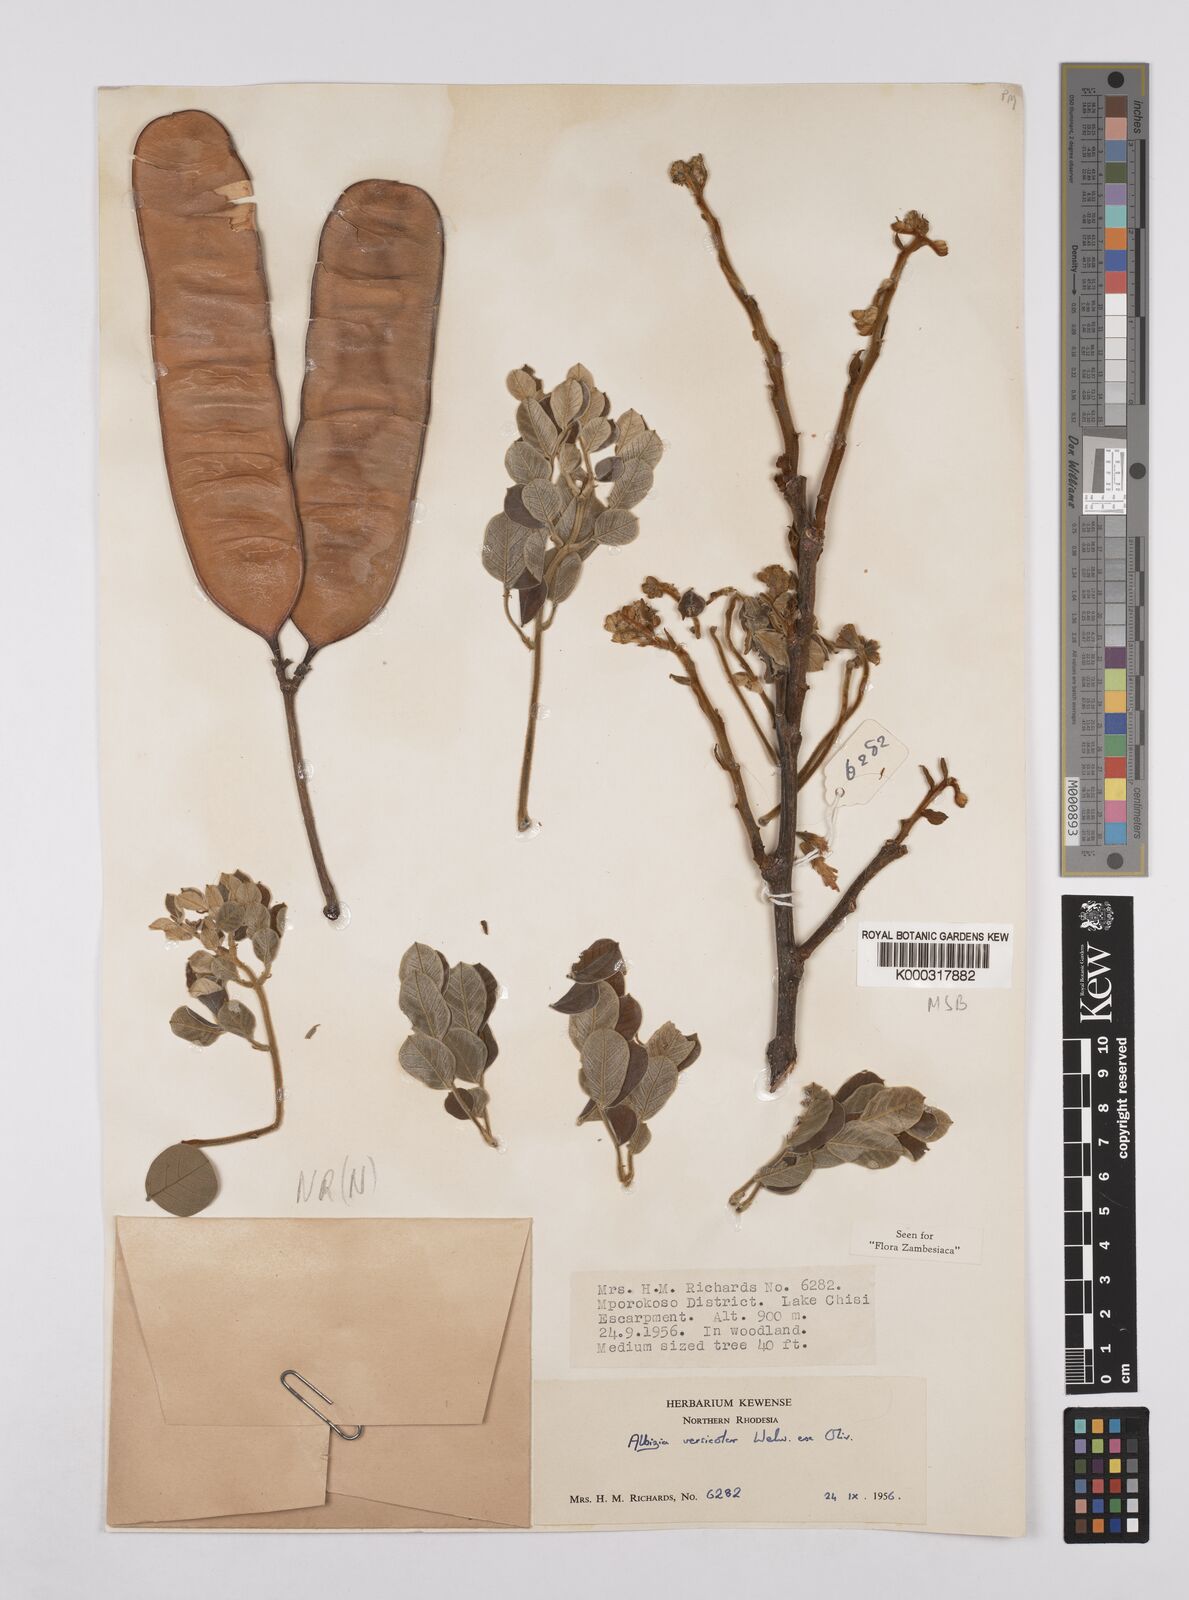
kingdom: Plantae
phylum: Tracheophyta
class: Magnoliopsida
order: Fabales
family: Fabaceae
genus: Albizia
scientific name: Albizia versicolor
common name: Poisonpod
